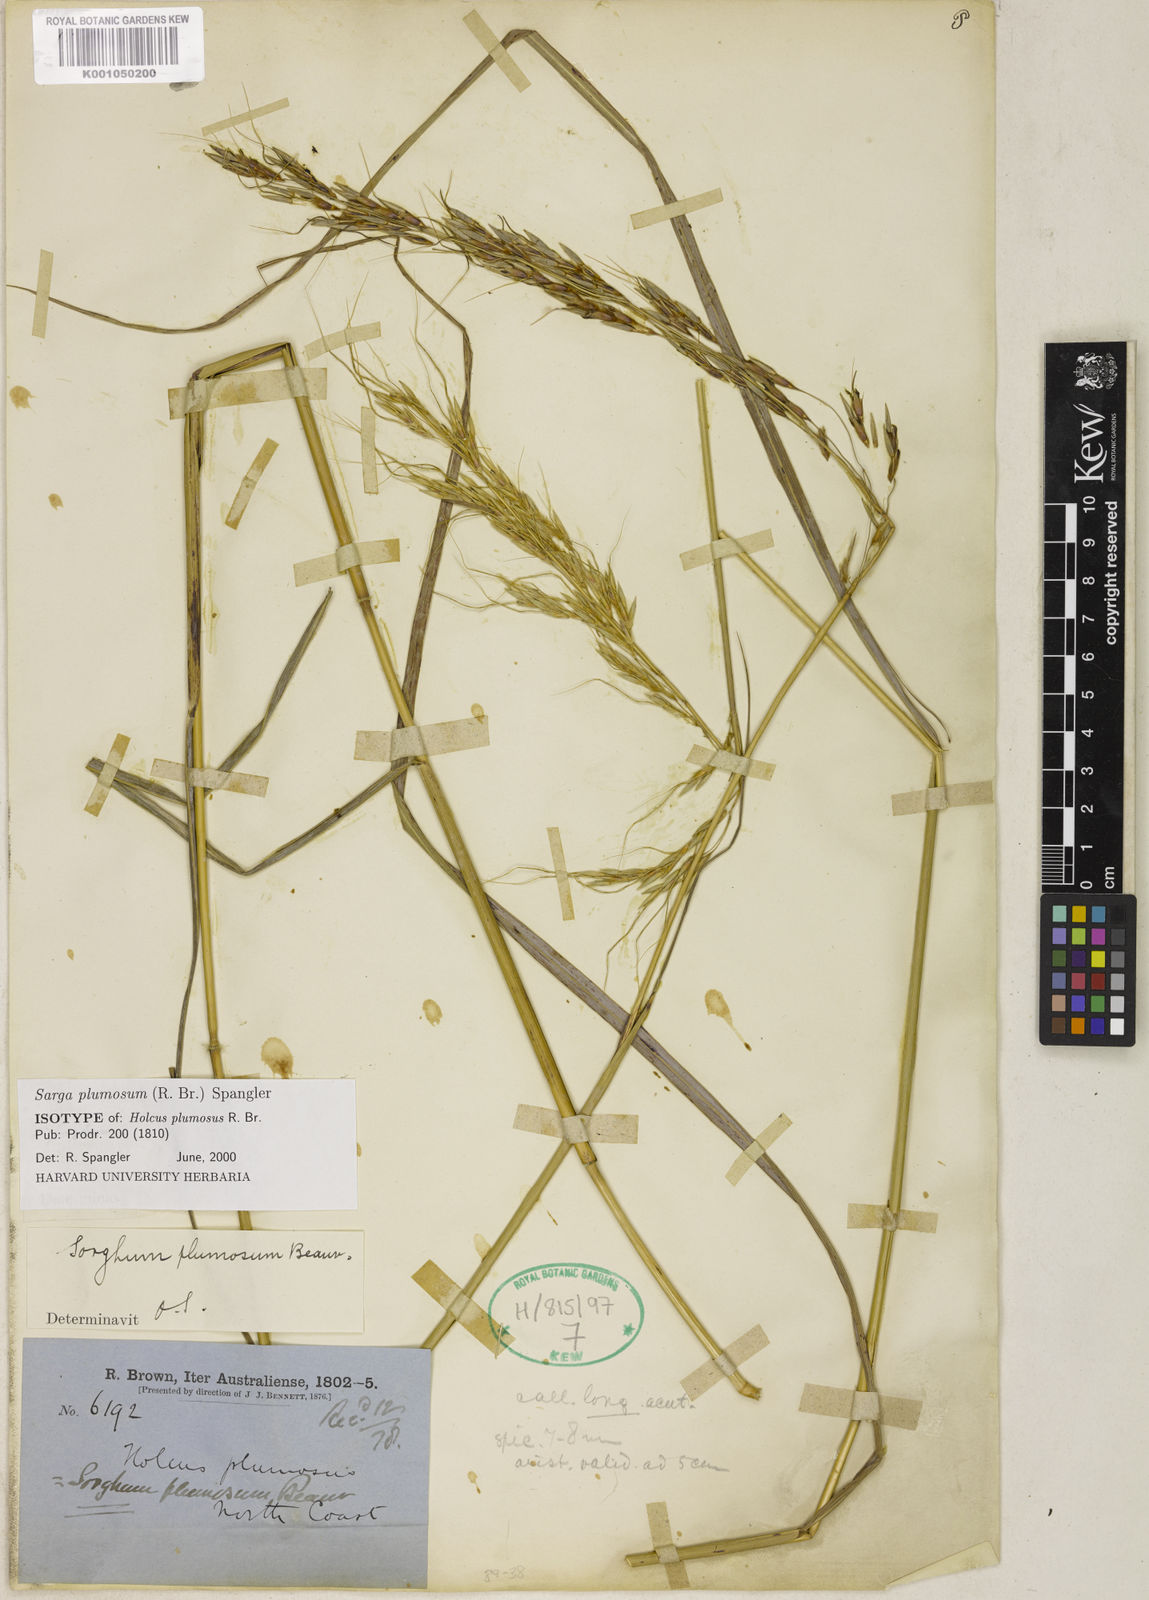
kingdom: Plantae
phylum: Tracheophyta
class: Liliopsida
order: Poales
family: Poaceae
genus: Sarga
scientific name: Sarga plumosa
